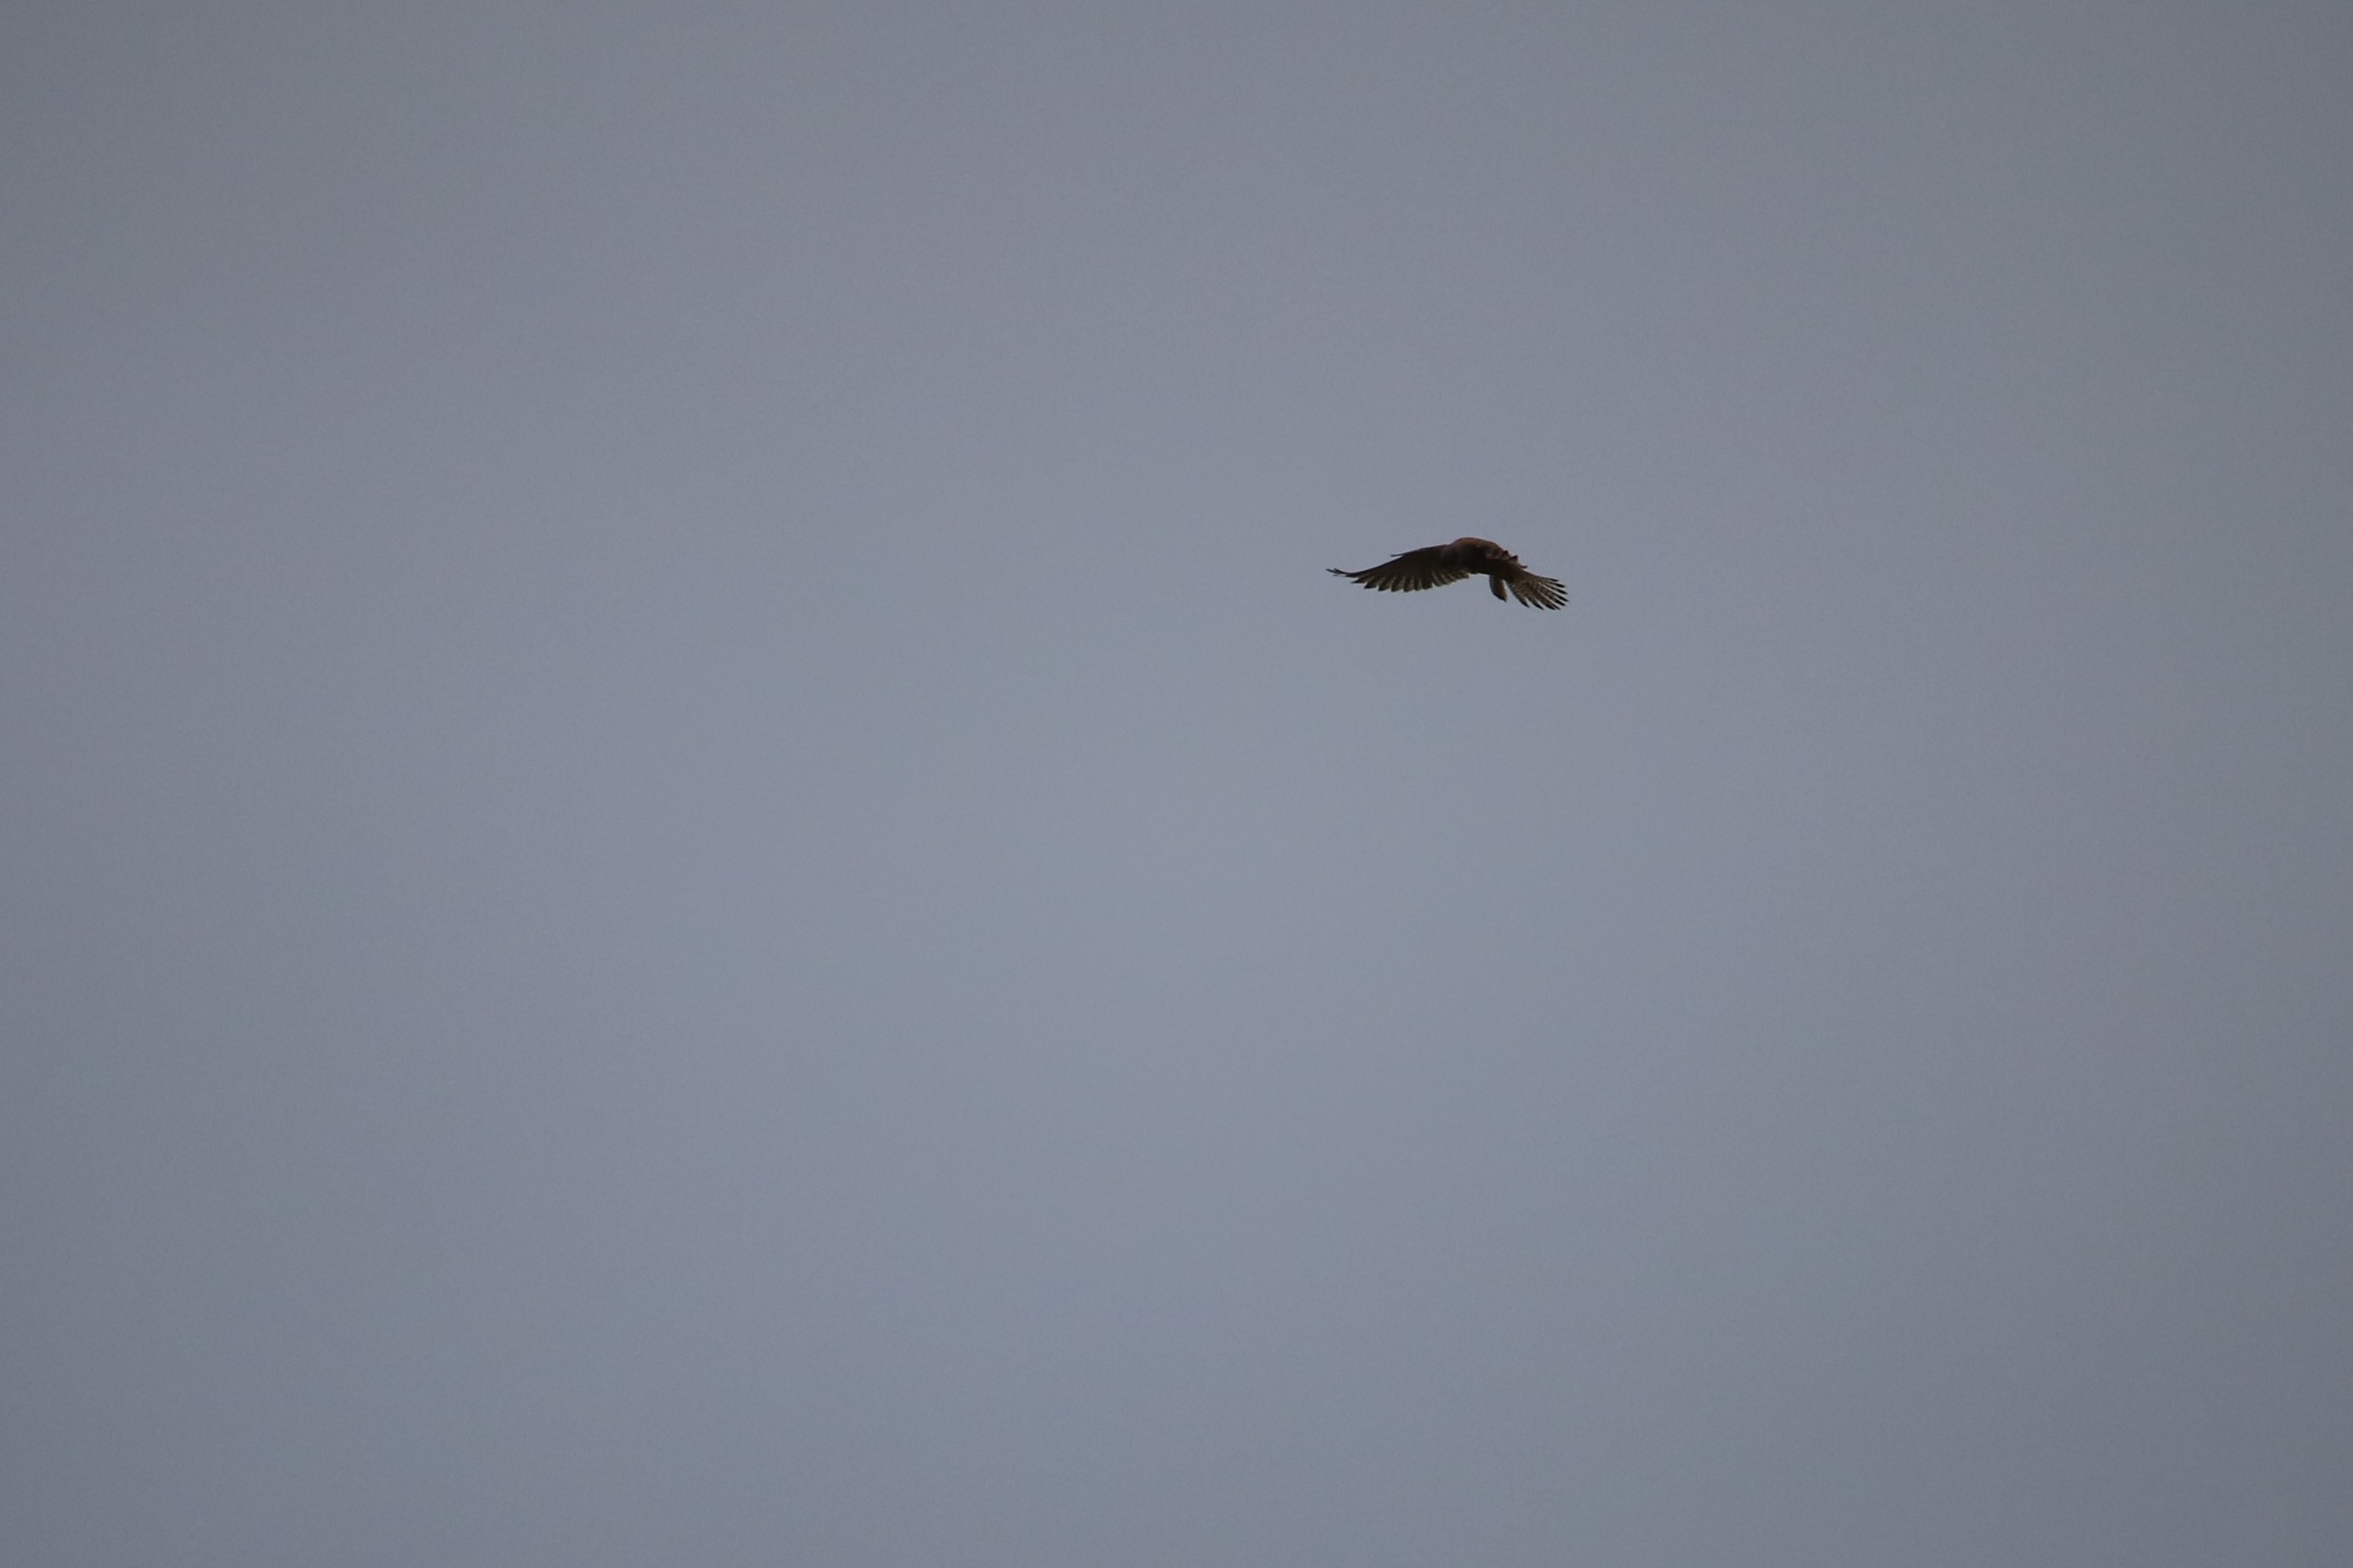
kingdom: Animalia
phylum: Chordata
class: Aves
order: Falconiformes
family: Falconidae
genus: Falco
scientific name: Falco tinnunculus
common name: Tårnfalk
